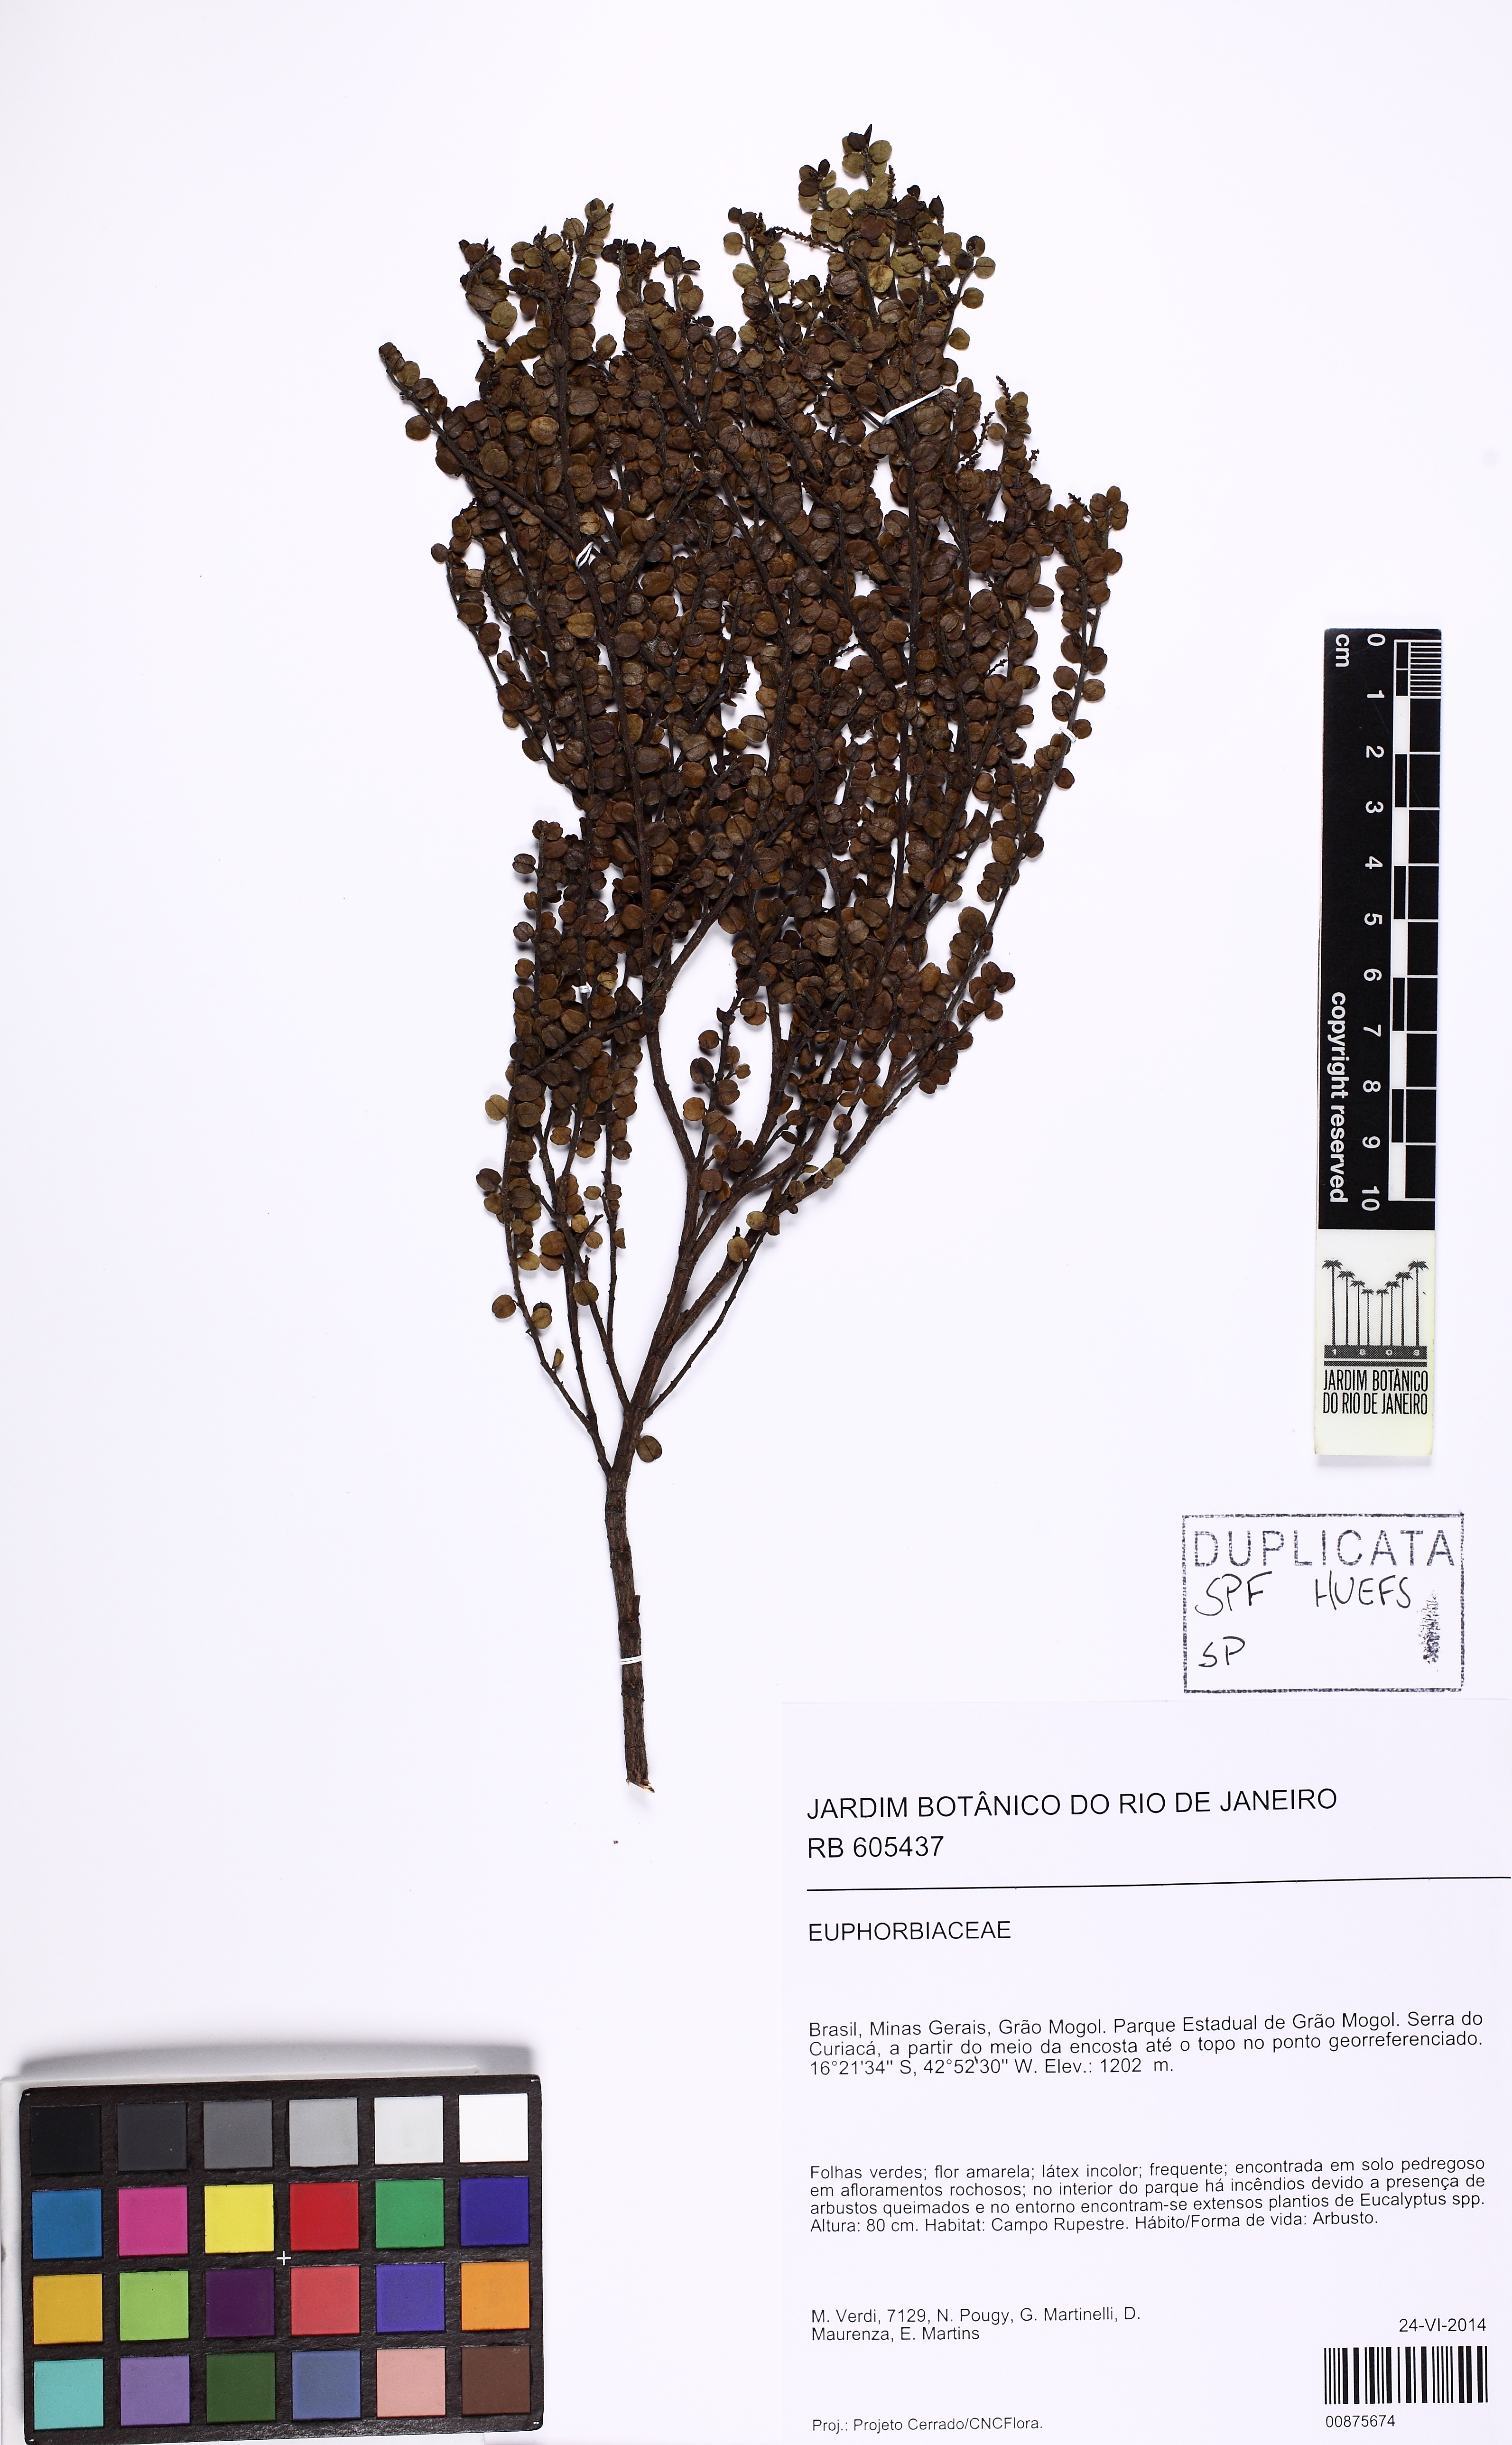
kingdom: Plantae
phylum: Tracheophyta
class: Magnoliopsida
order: Malpighiales
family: Euphorbiaceae
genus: Microstachys
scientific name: Microstachys nummulariifolia
